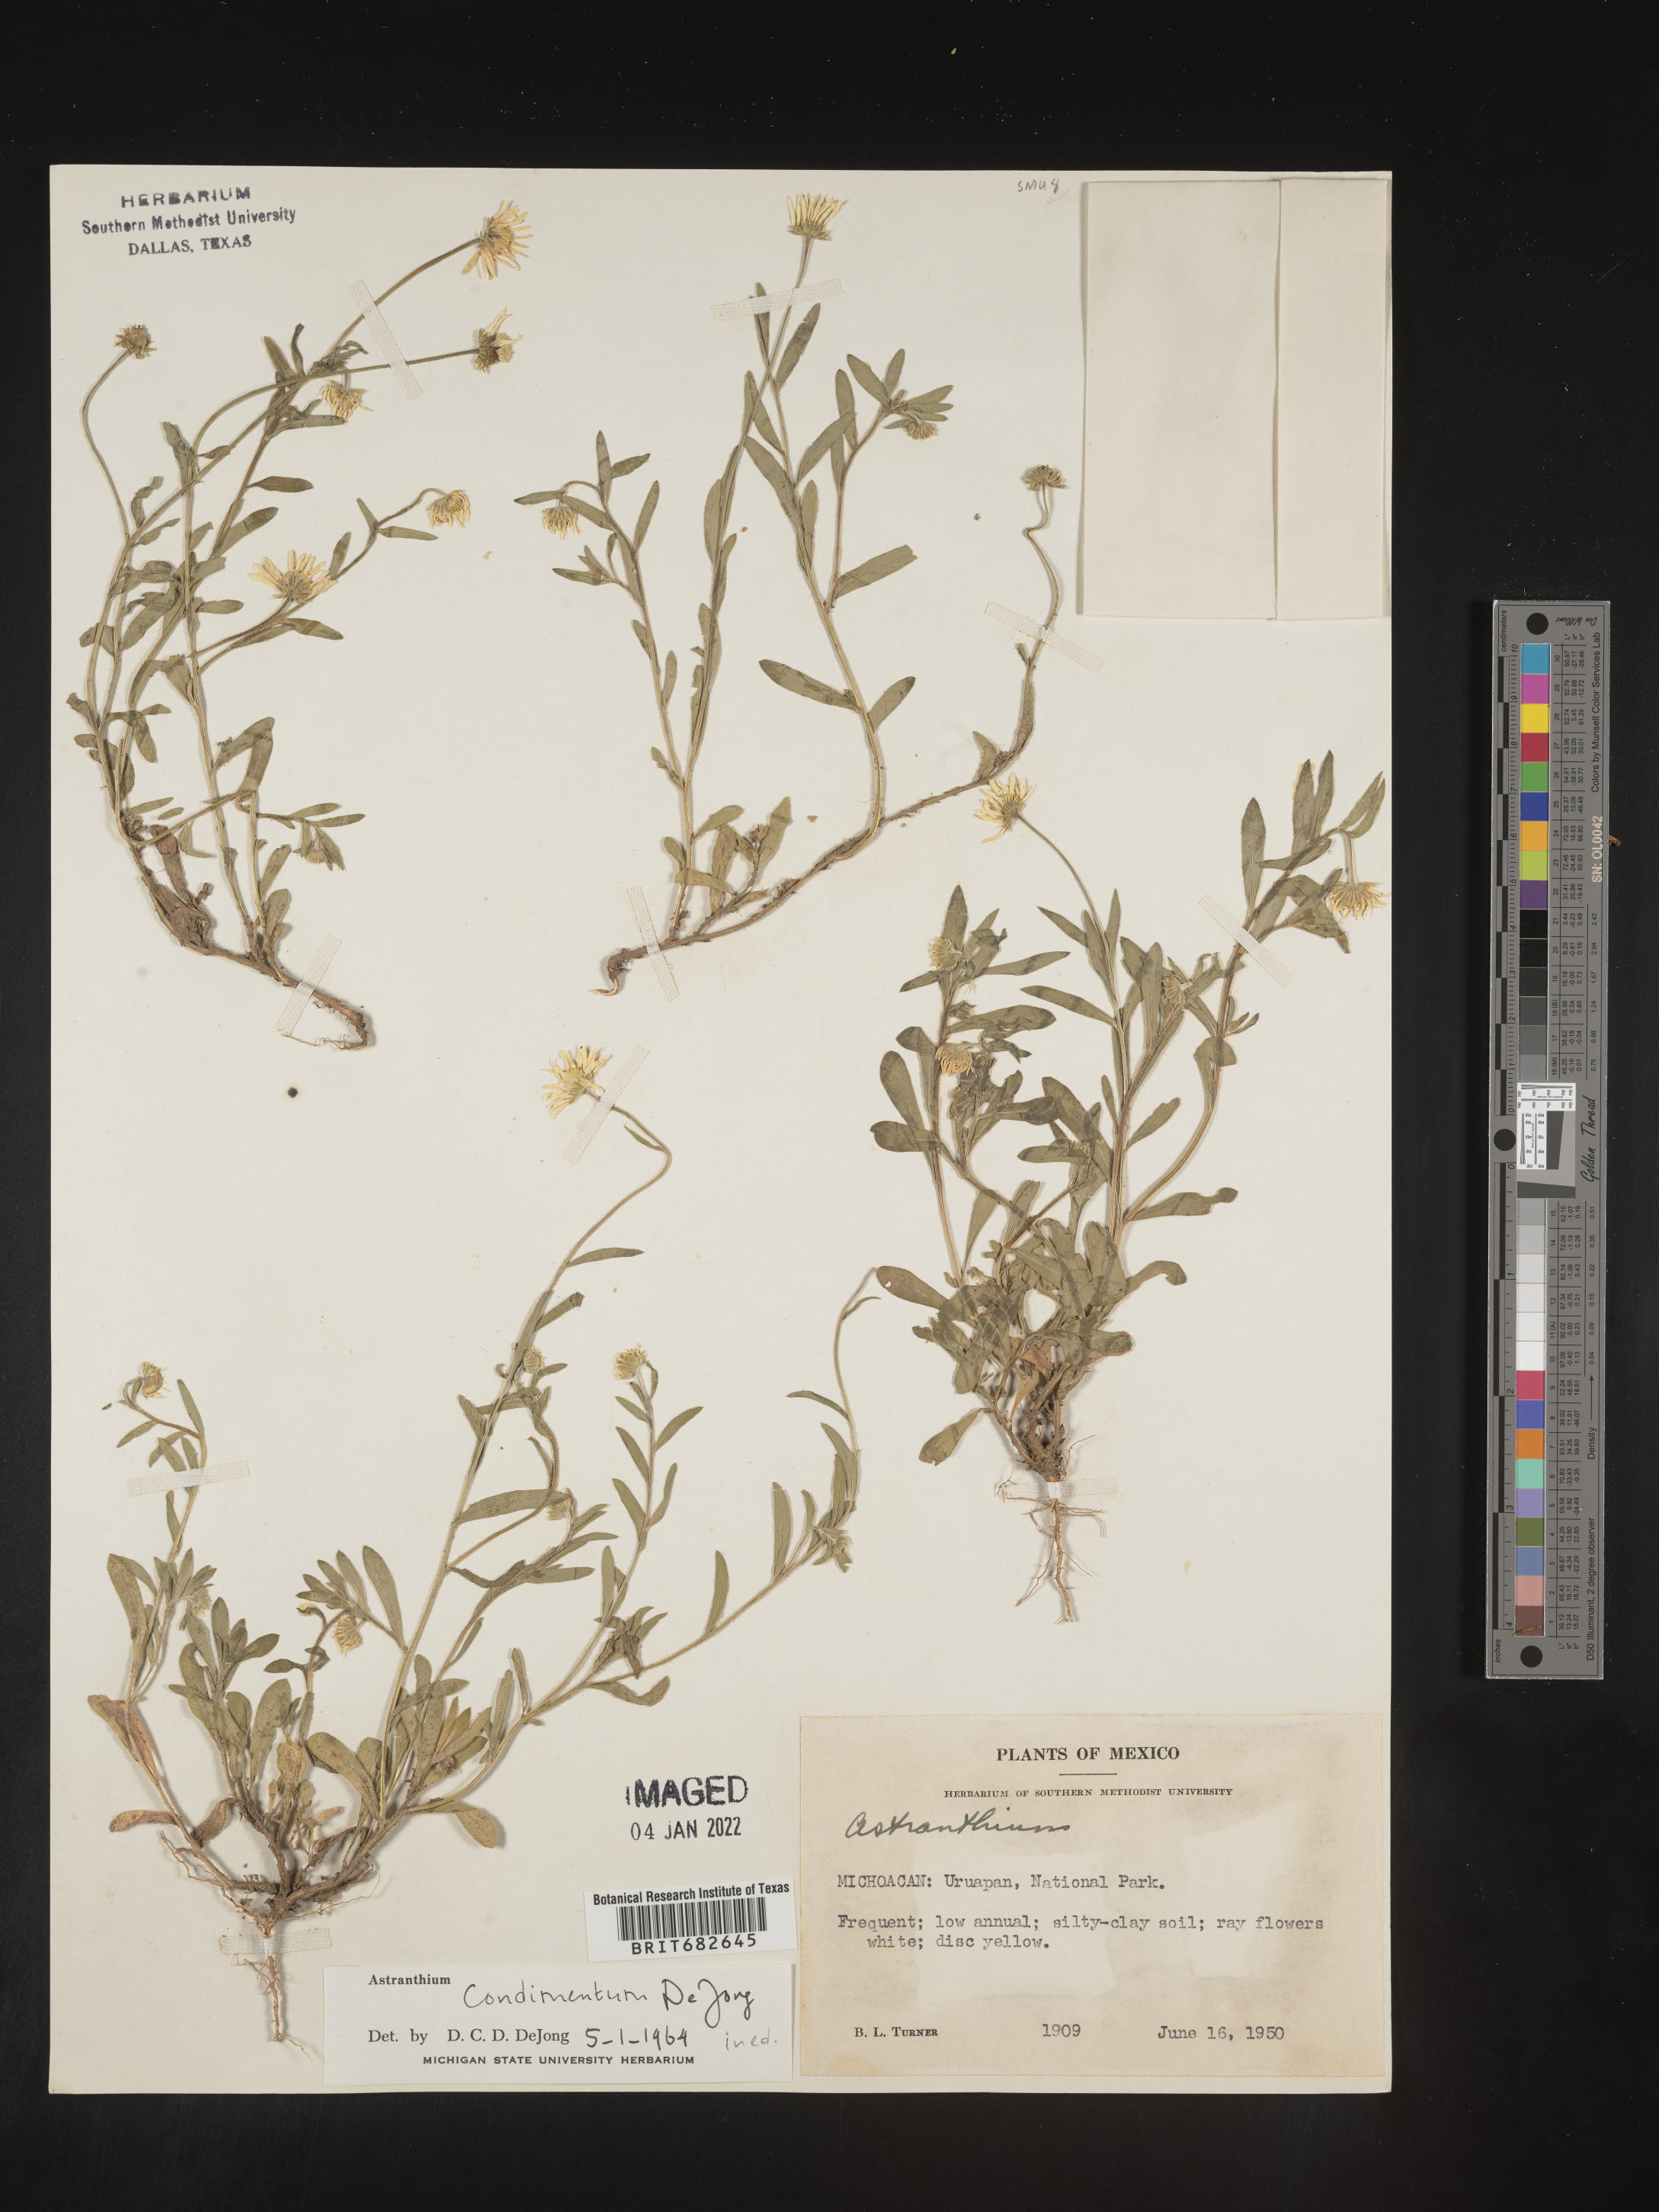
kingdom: Plantae
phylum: Tracheophyta
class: Magnoliopsida
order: Asterales
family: Asteraceae
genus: Astranthium
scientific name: Astranthium
